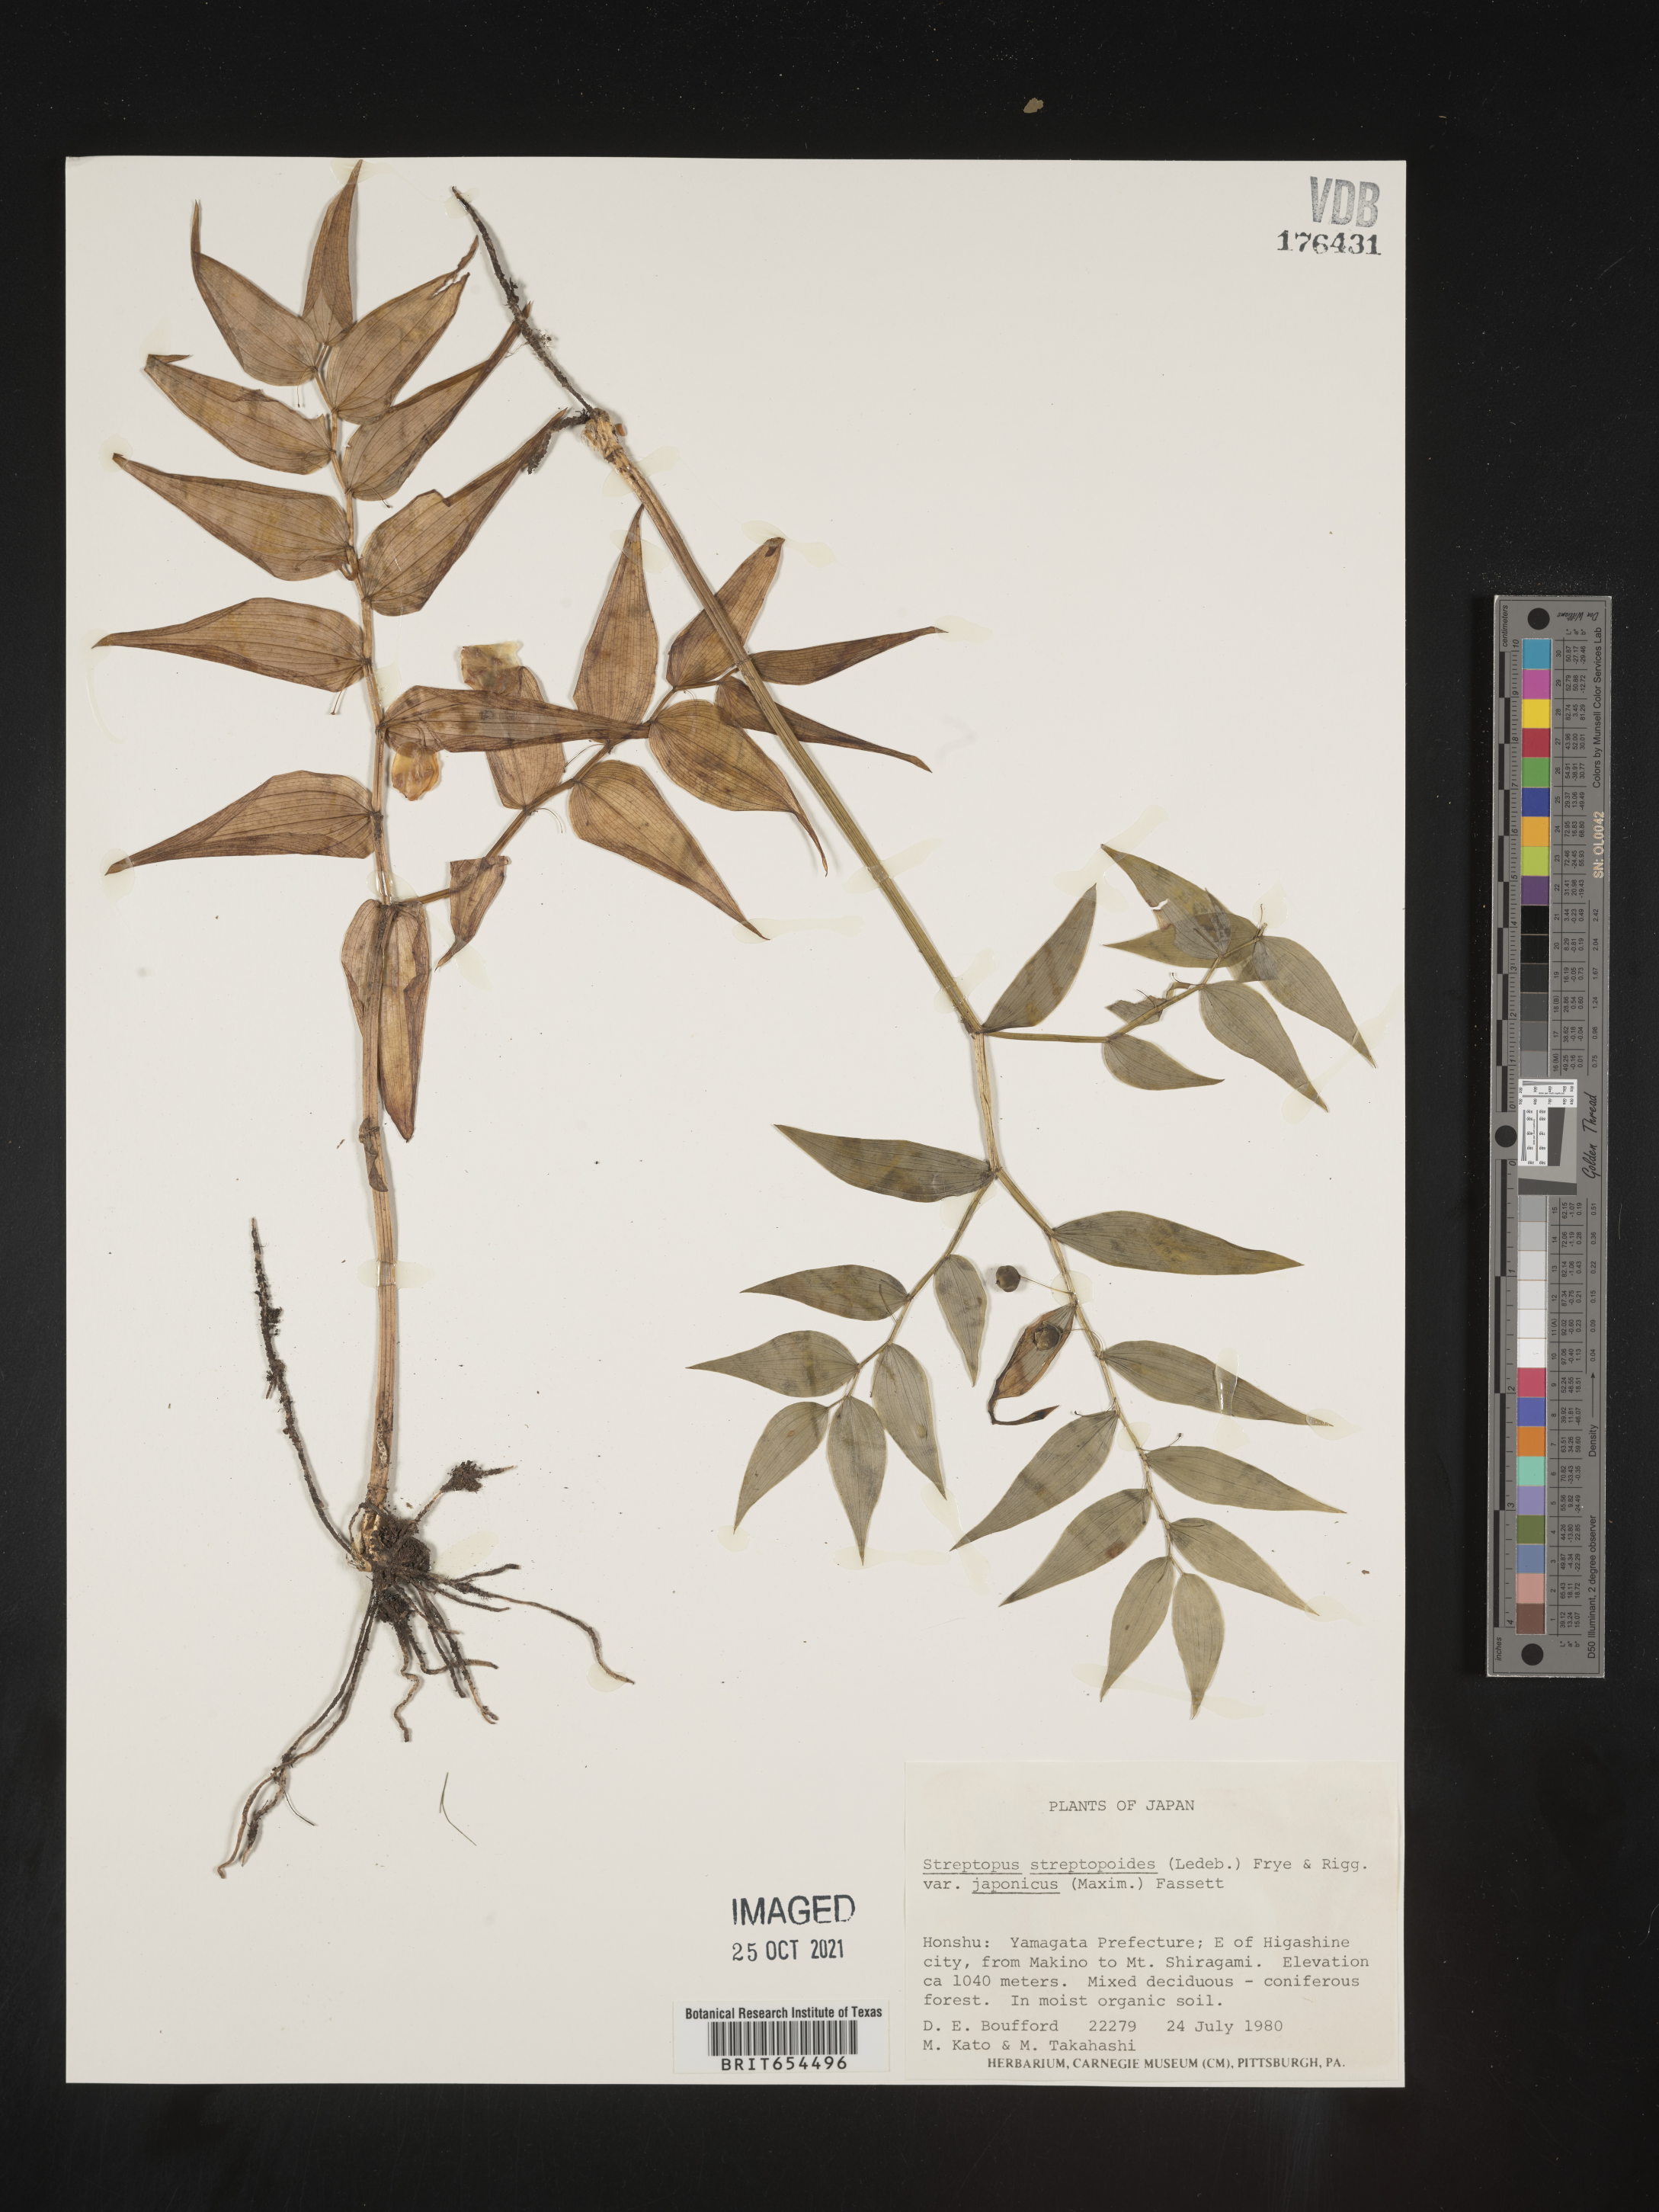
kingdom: Plantae
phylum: Tracheophyta
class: Liliopsida
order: Liliales
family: Liliaceae
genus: Streptopus
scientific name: Streptopus
